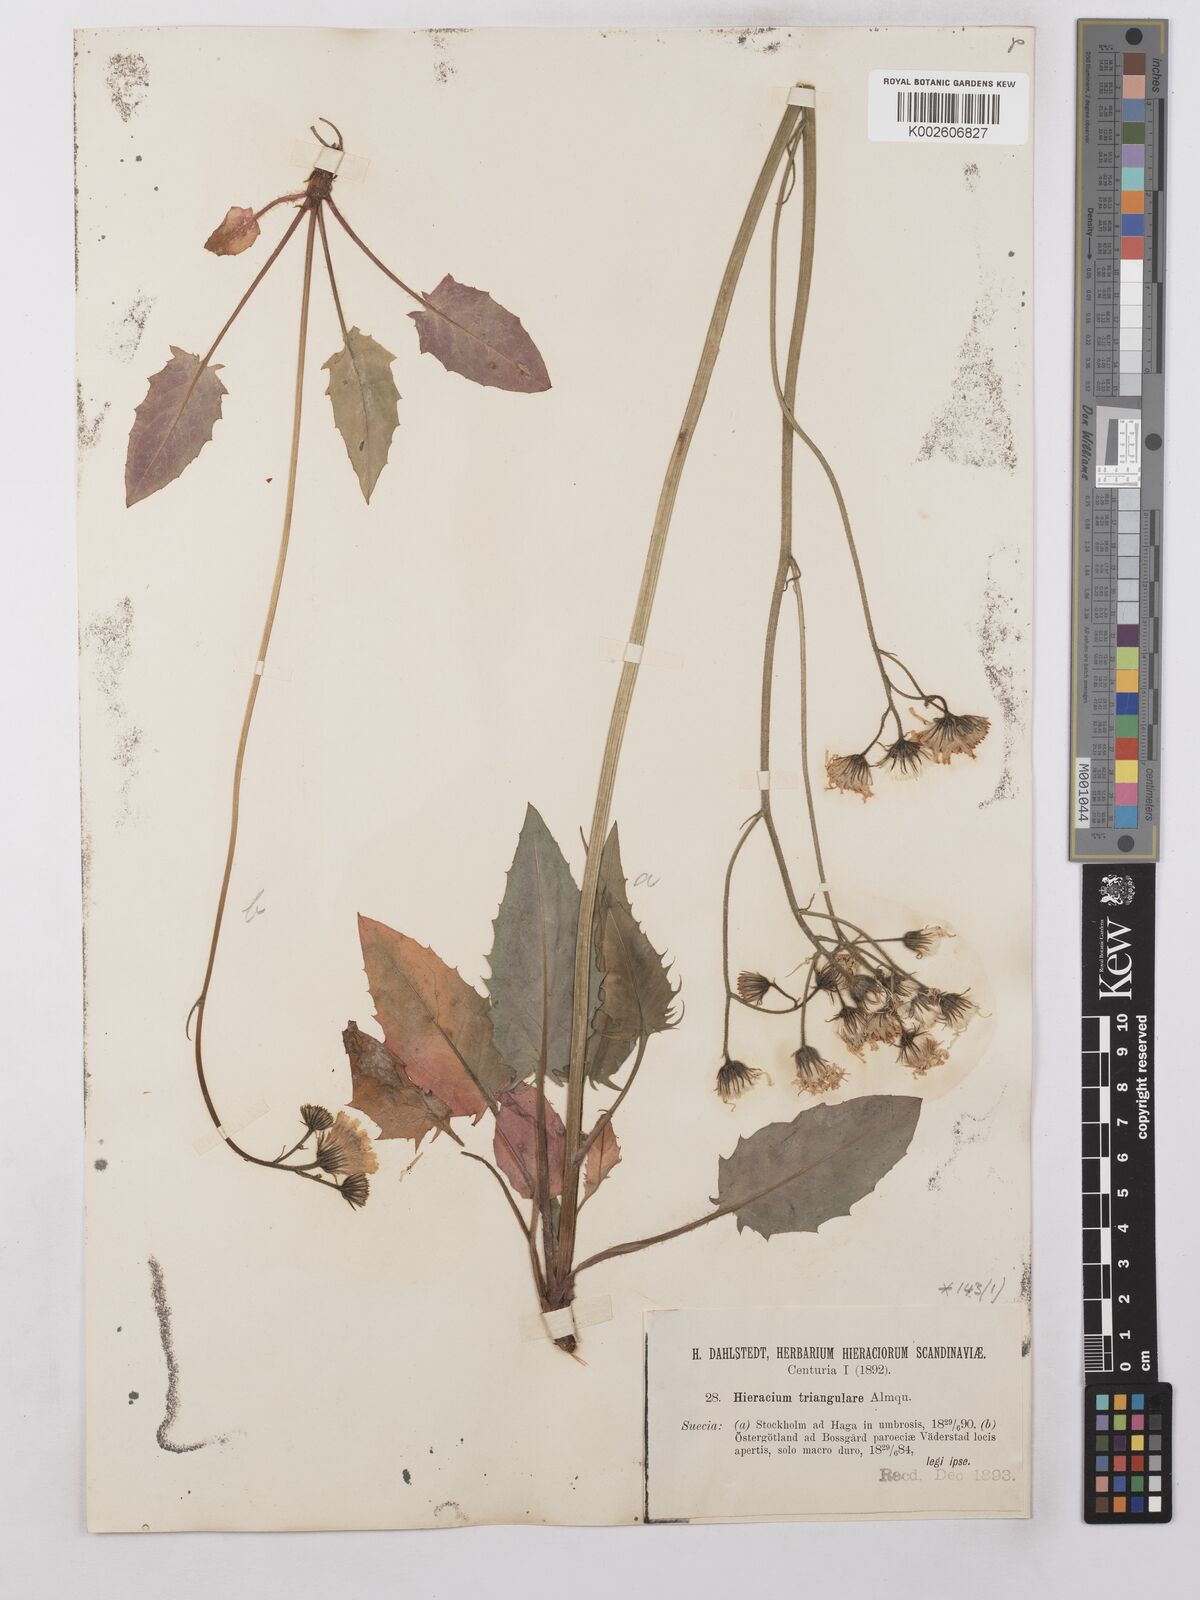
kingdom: Plantae
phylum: Tracheophyta
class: Magnoliopsida
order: Asterales
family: Asteraceae
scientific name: Asteraceae
